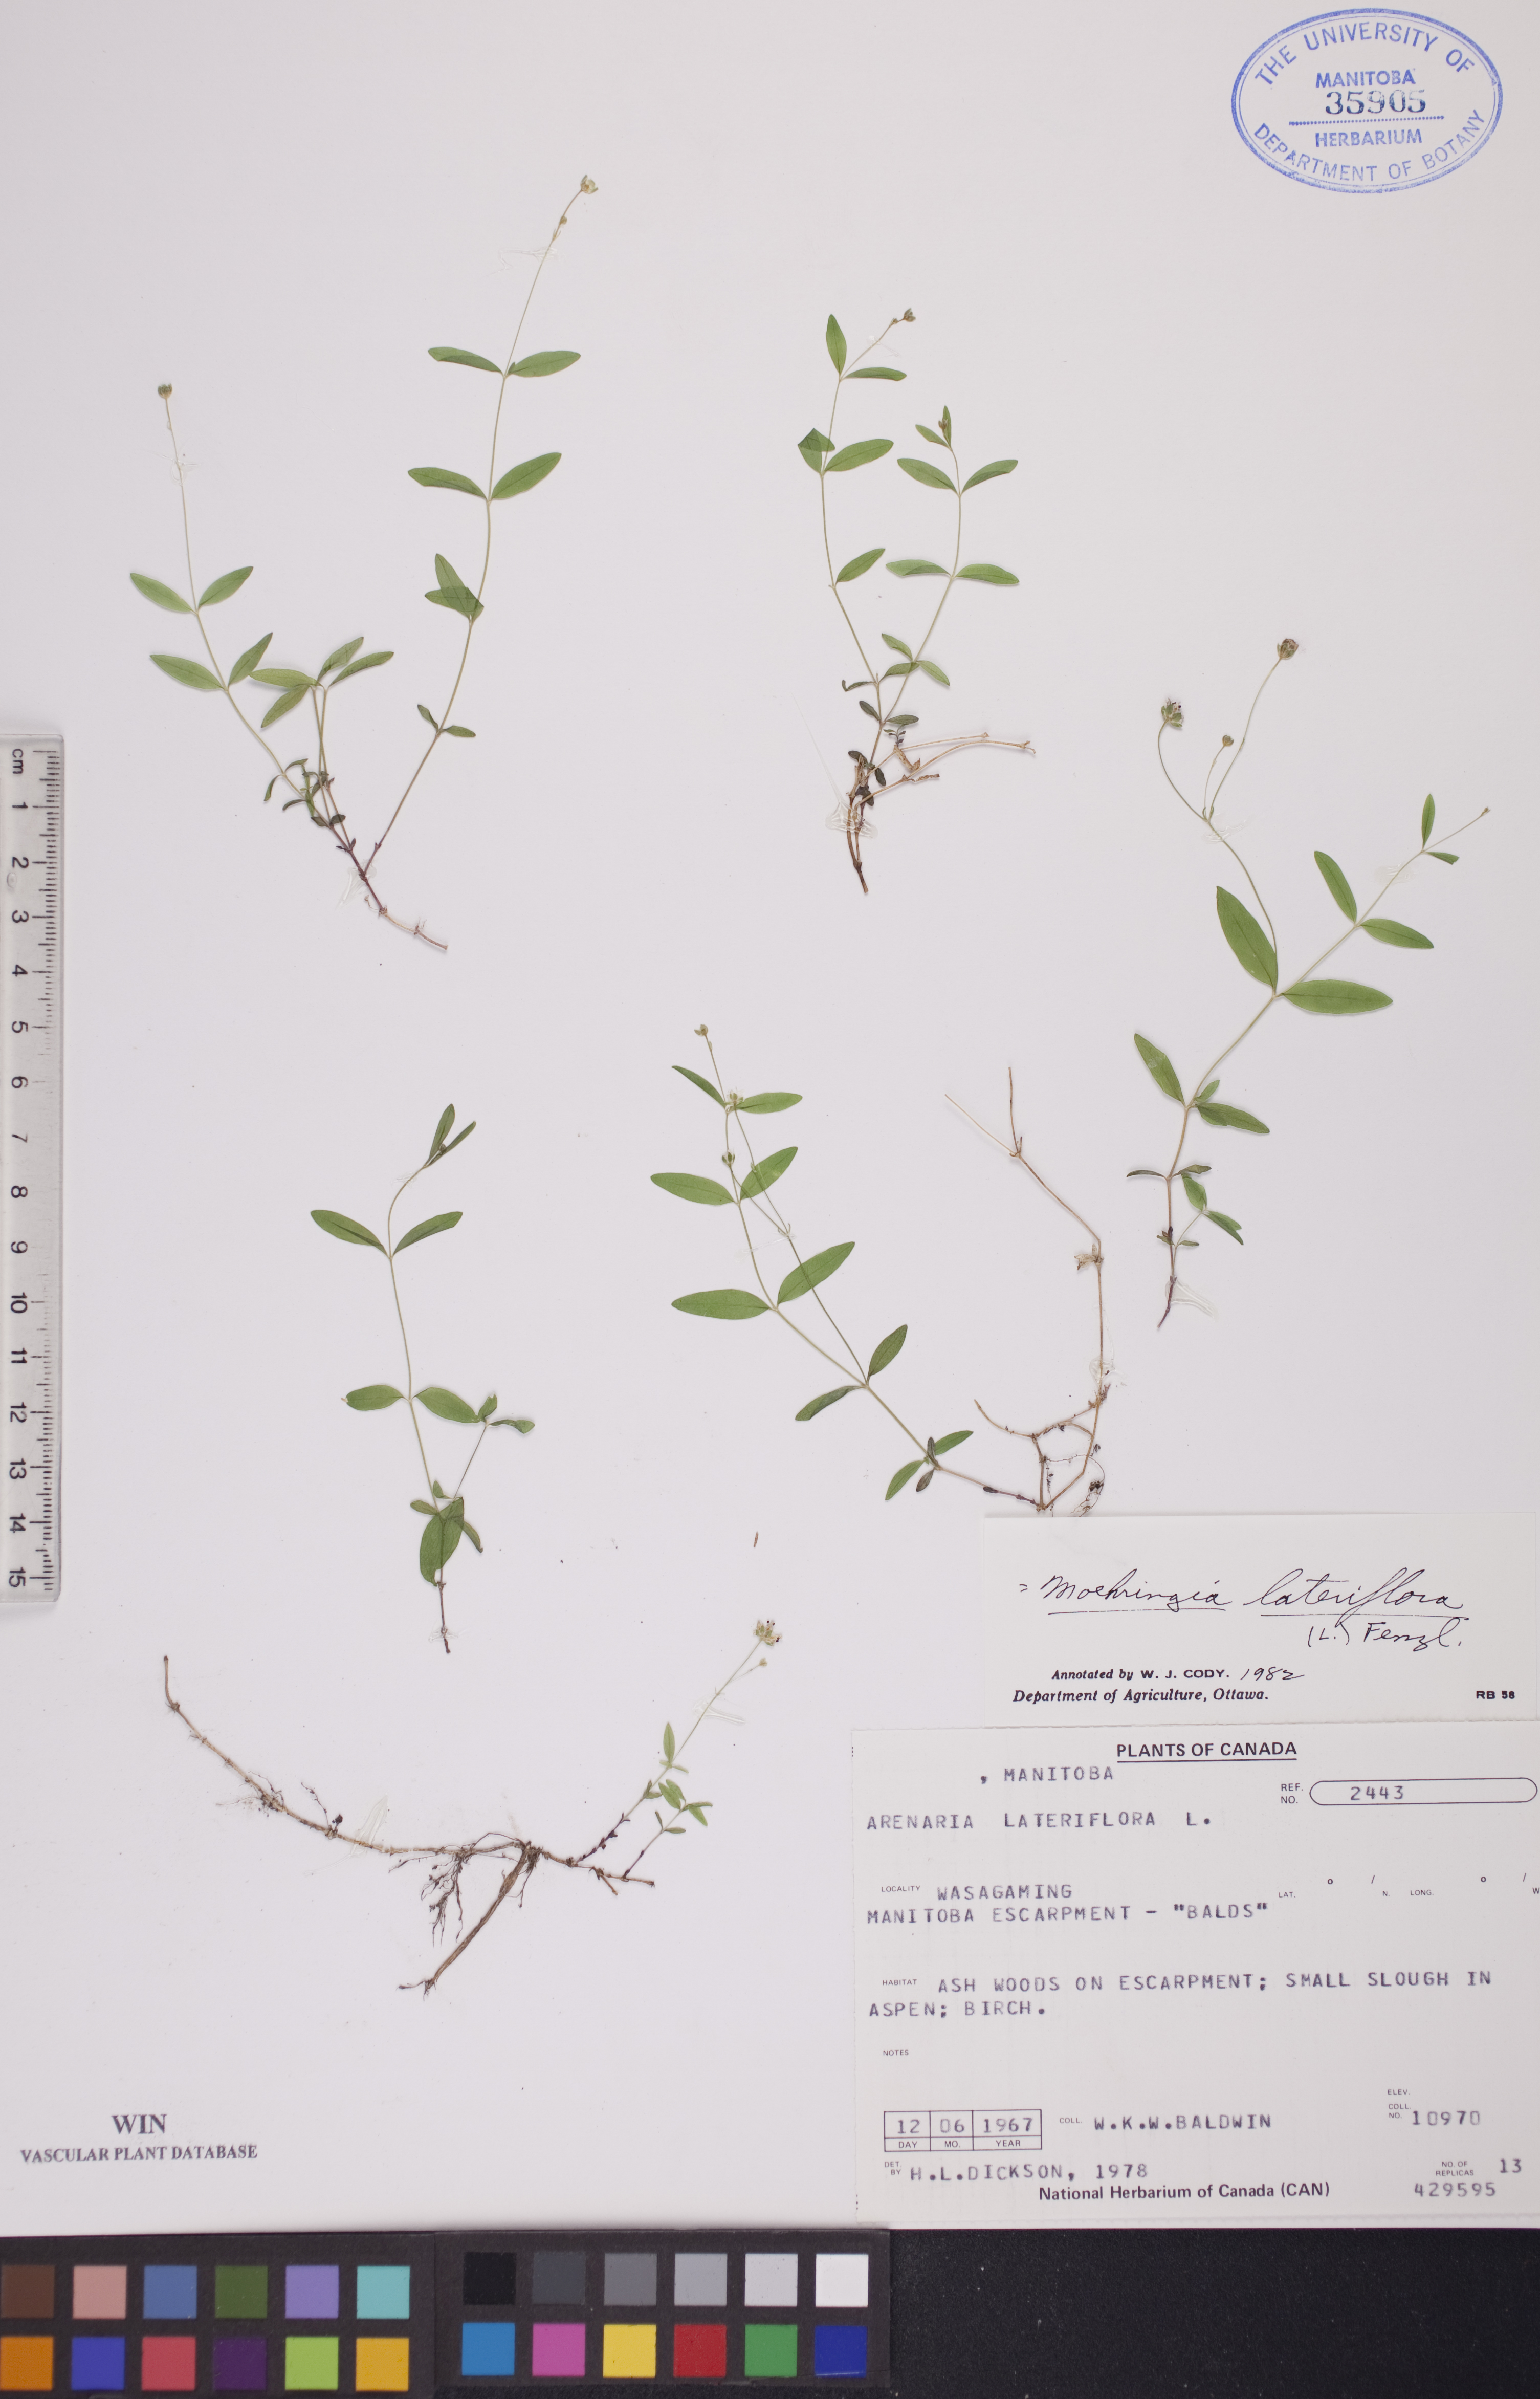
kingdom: Plantae
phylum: Tracheophyta
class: Magnoliopsida
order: Caryophyllales
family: Caryophyllaceae
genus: Moehringia
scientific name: Moehringia lateriflora
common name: Blunt-leaved sandwort
